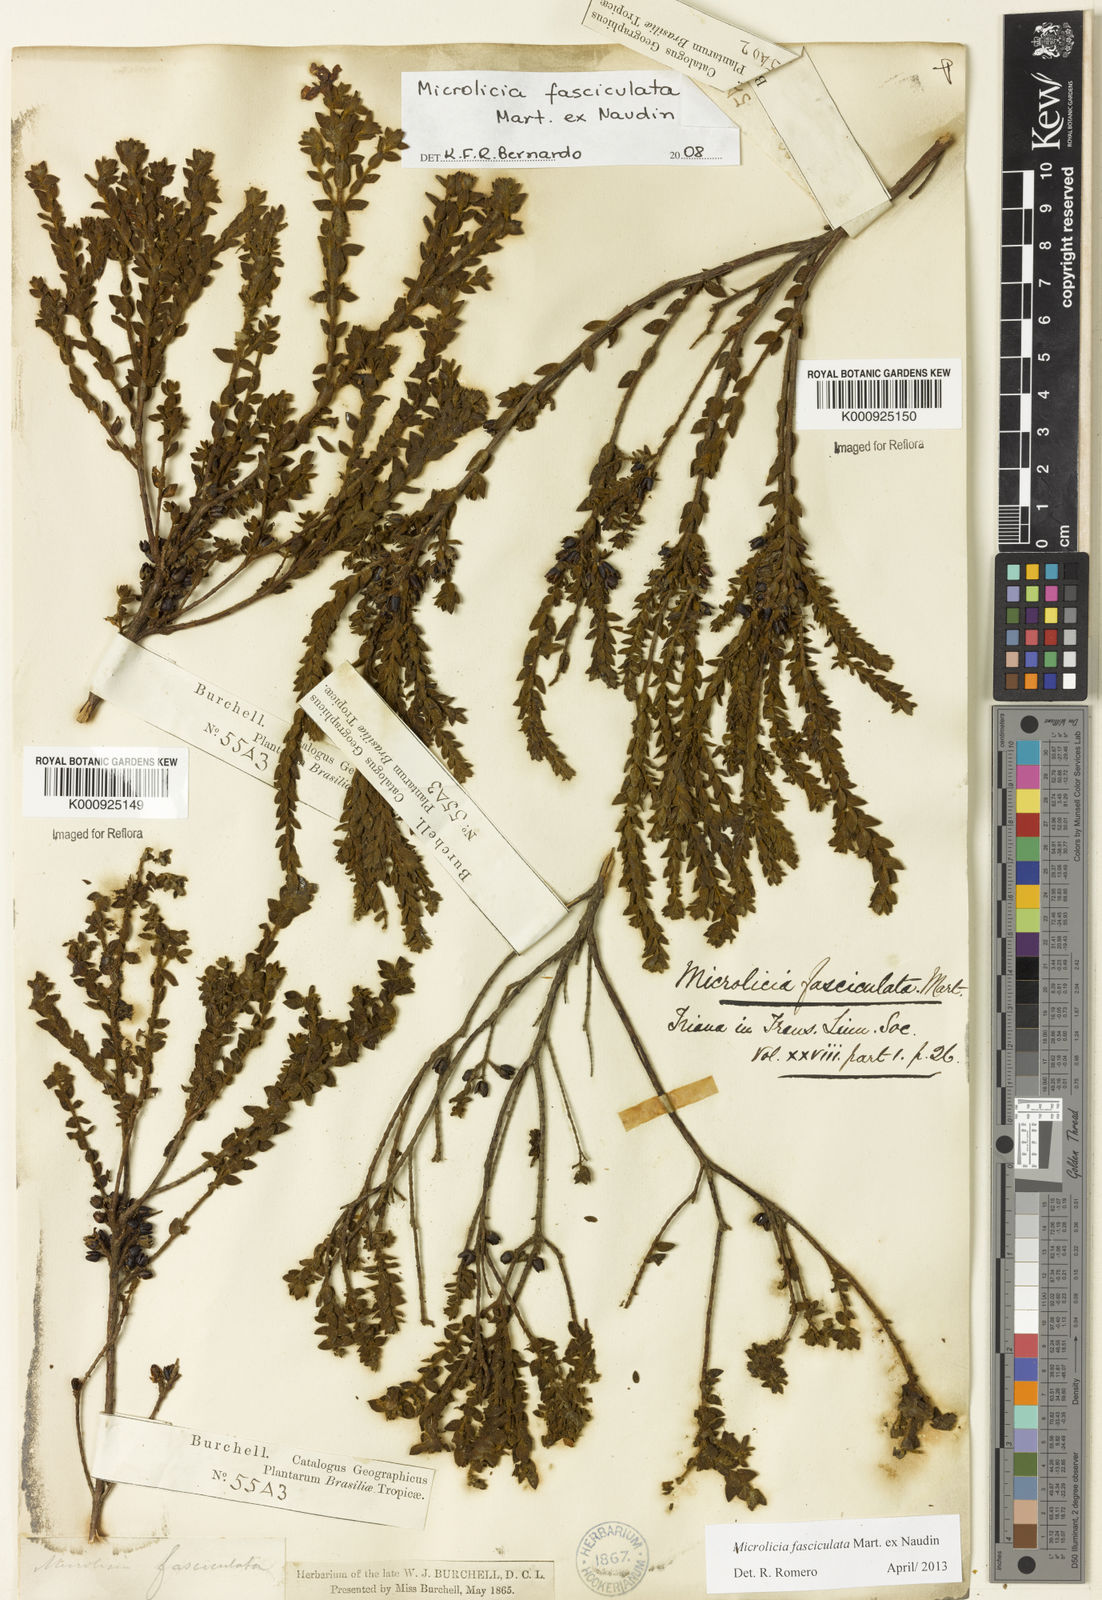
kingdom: Plantae
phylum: Tracheophyta
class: Magnoliopsida
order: Myrtales
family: Melastomataceae
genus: Microlicia
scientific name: Microlicia fasciculata
